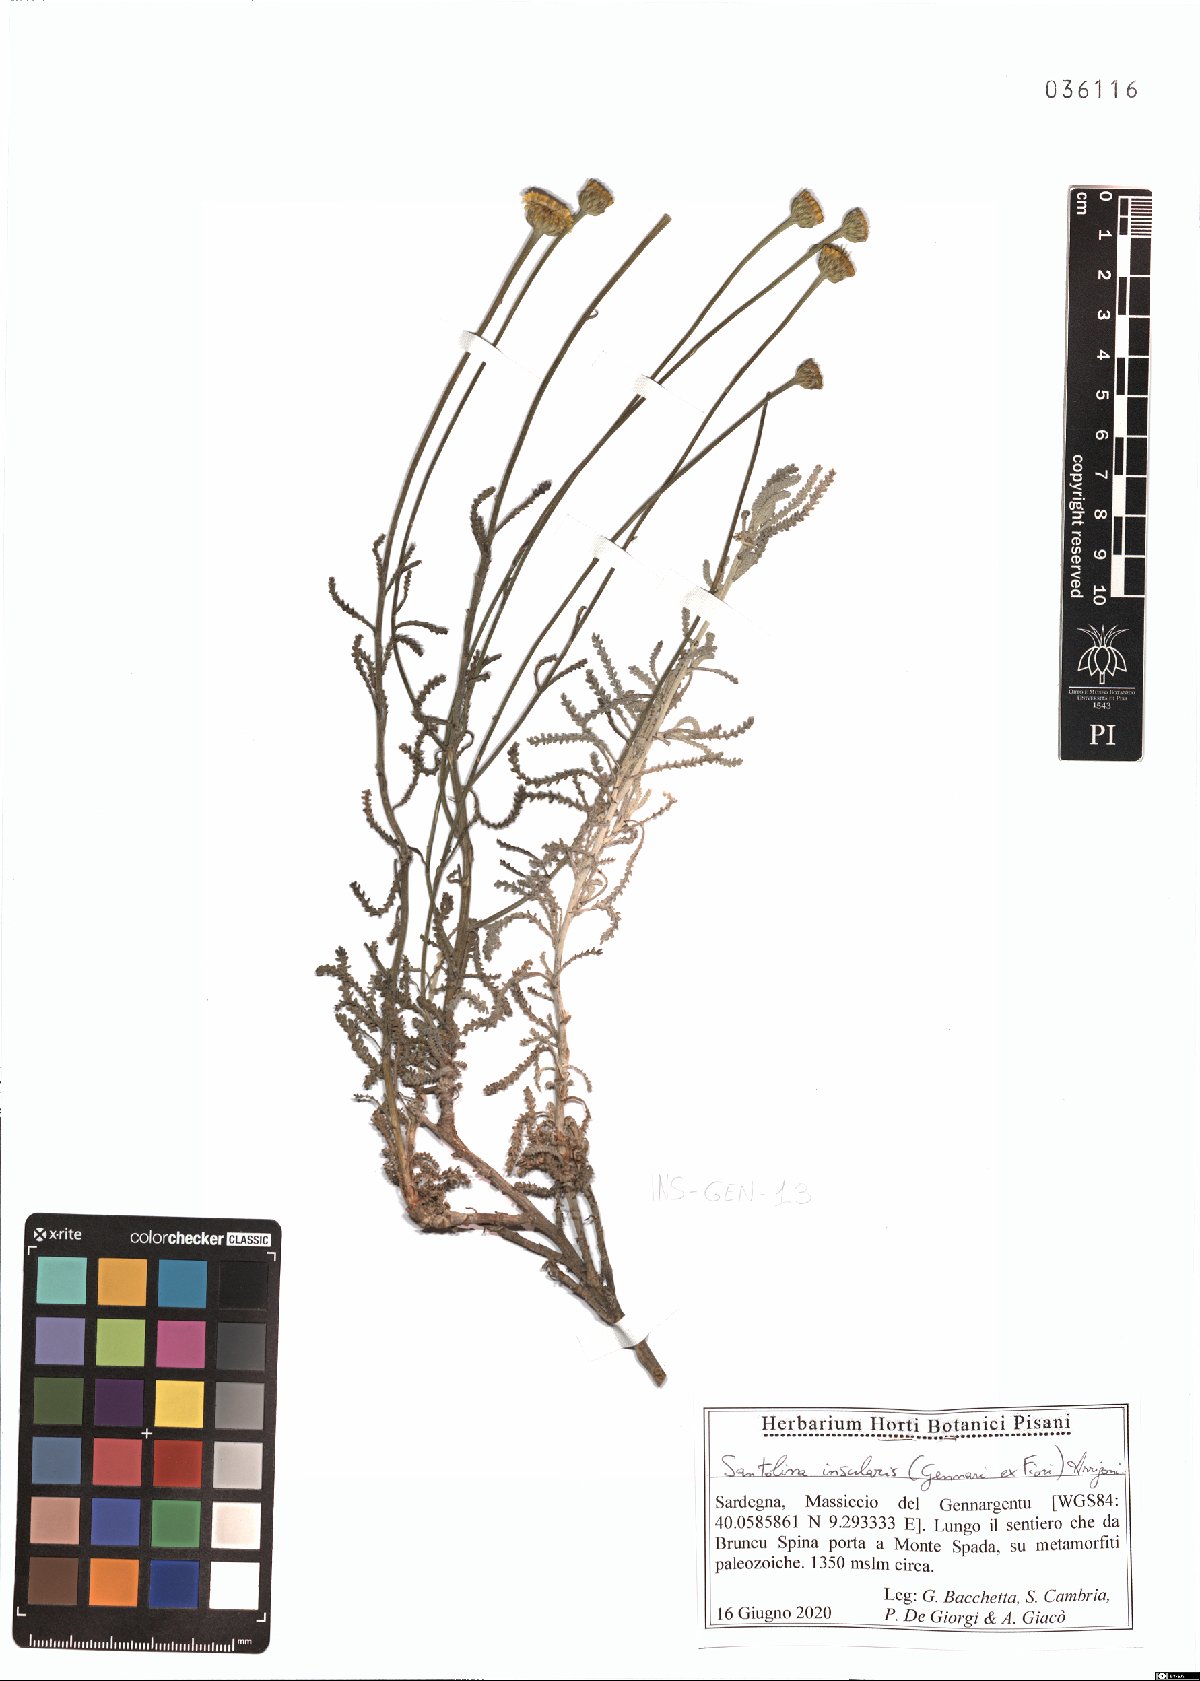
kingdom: Plantae
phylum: Tracheophyta
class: Magnoliopsida
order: Asterales
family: Asteraceae
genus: Santolina
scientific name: Santolina insularis
